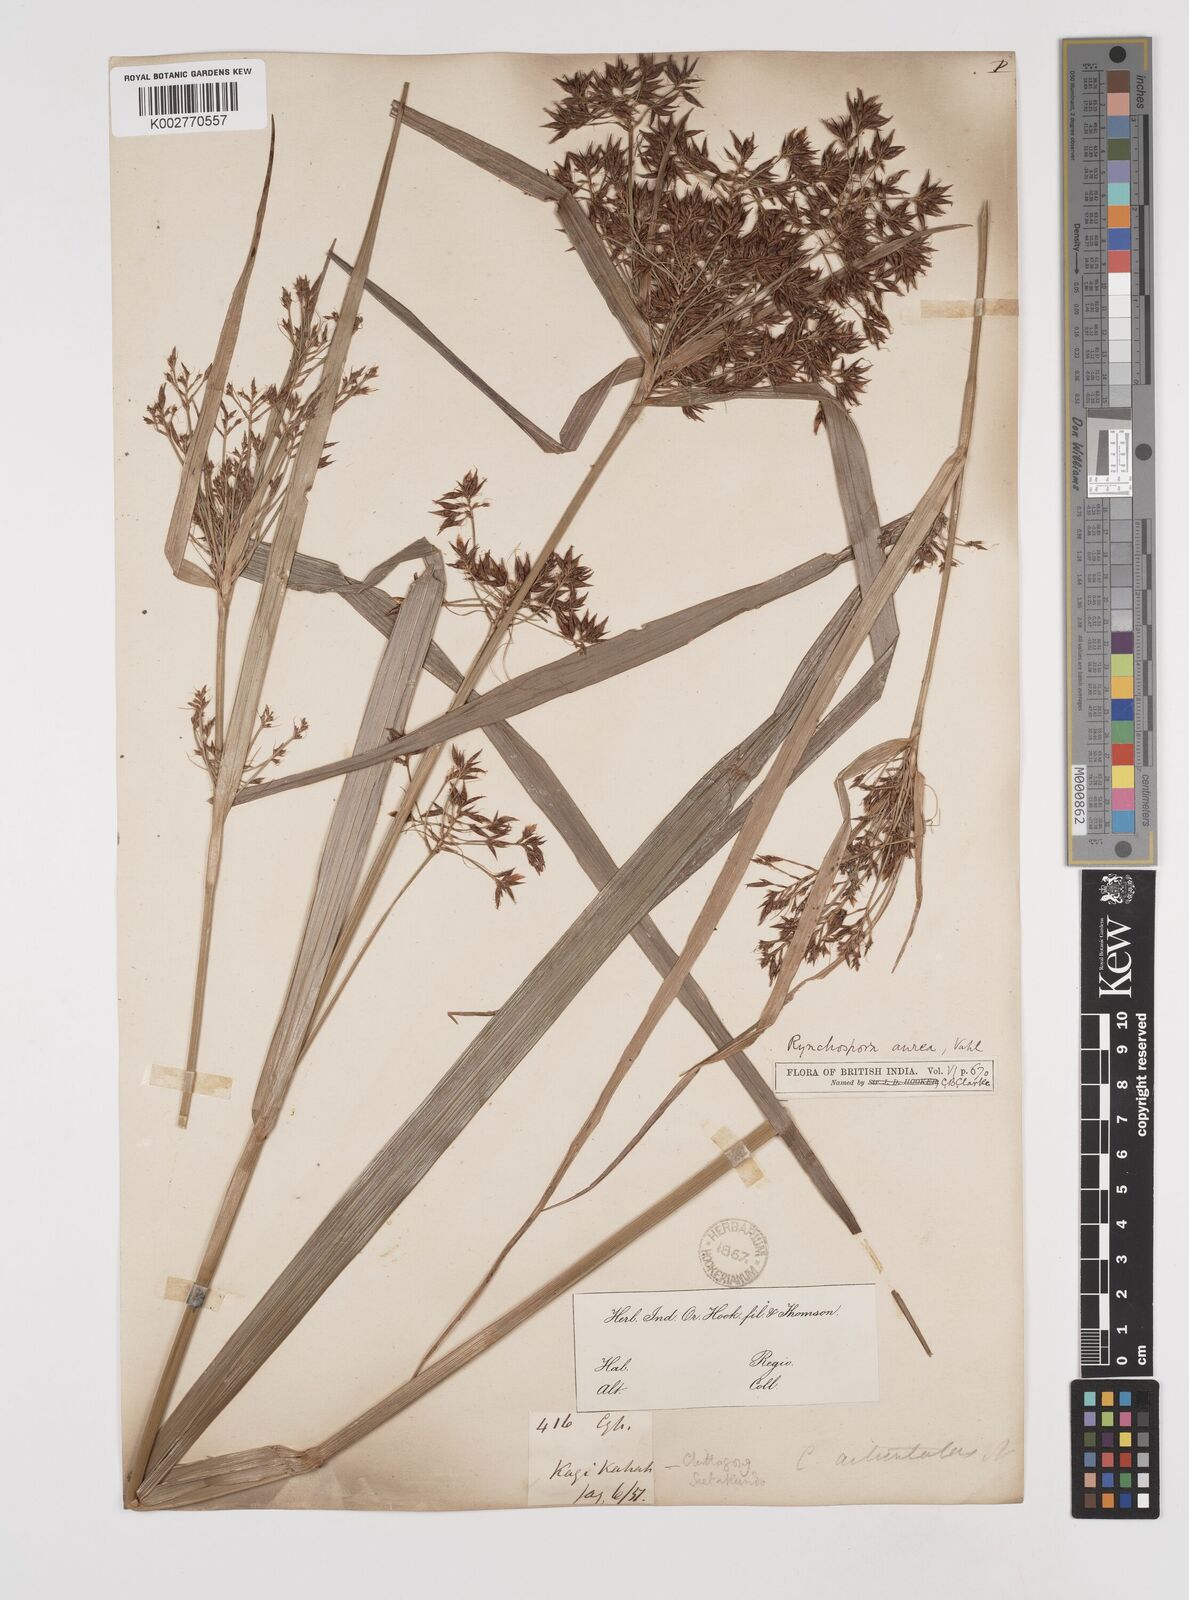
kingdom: Plantae
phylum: Tracheophyta
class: Liliopsida
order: Poales
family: Cyperaceae
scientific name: Cyperaceae
